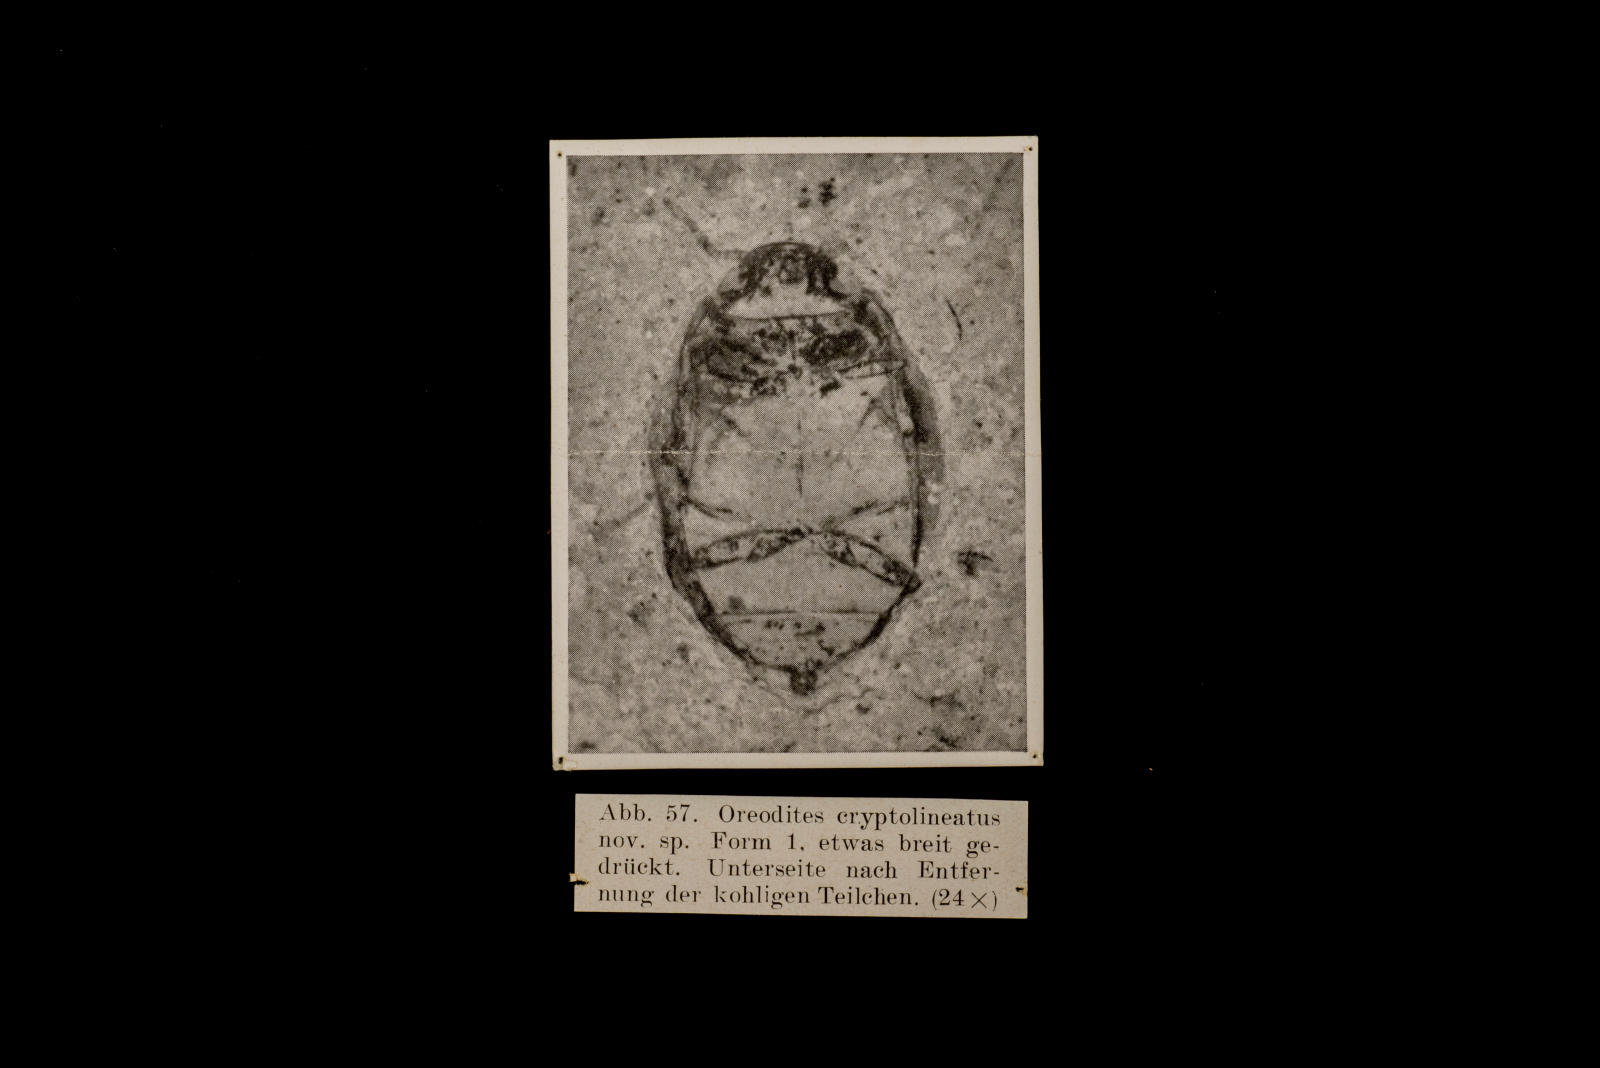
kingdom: Animalia
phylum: Arthropoda
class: Insecta
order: Coleoptera
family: Dytiscidae
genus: Oreodytes
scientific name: Oreodytes cryptolineatus
